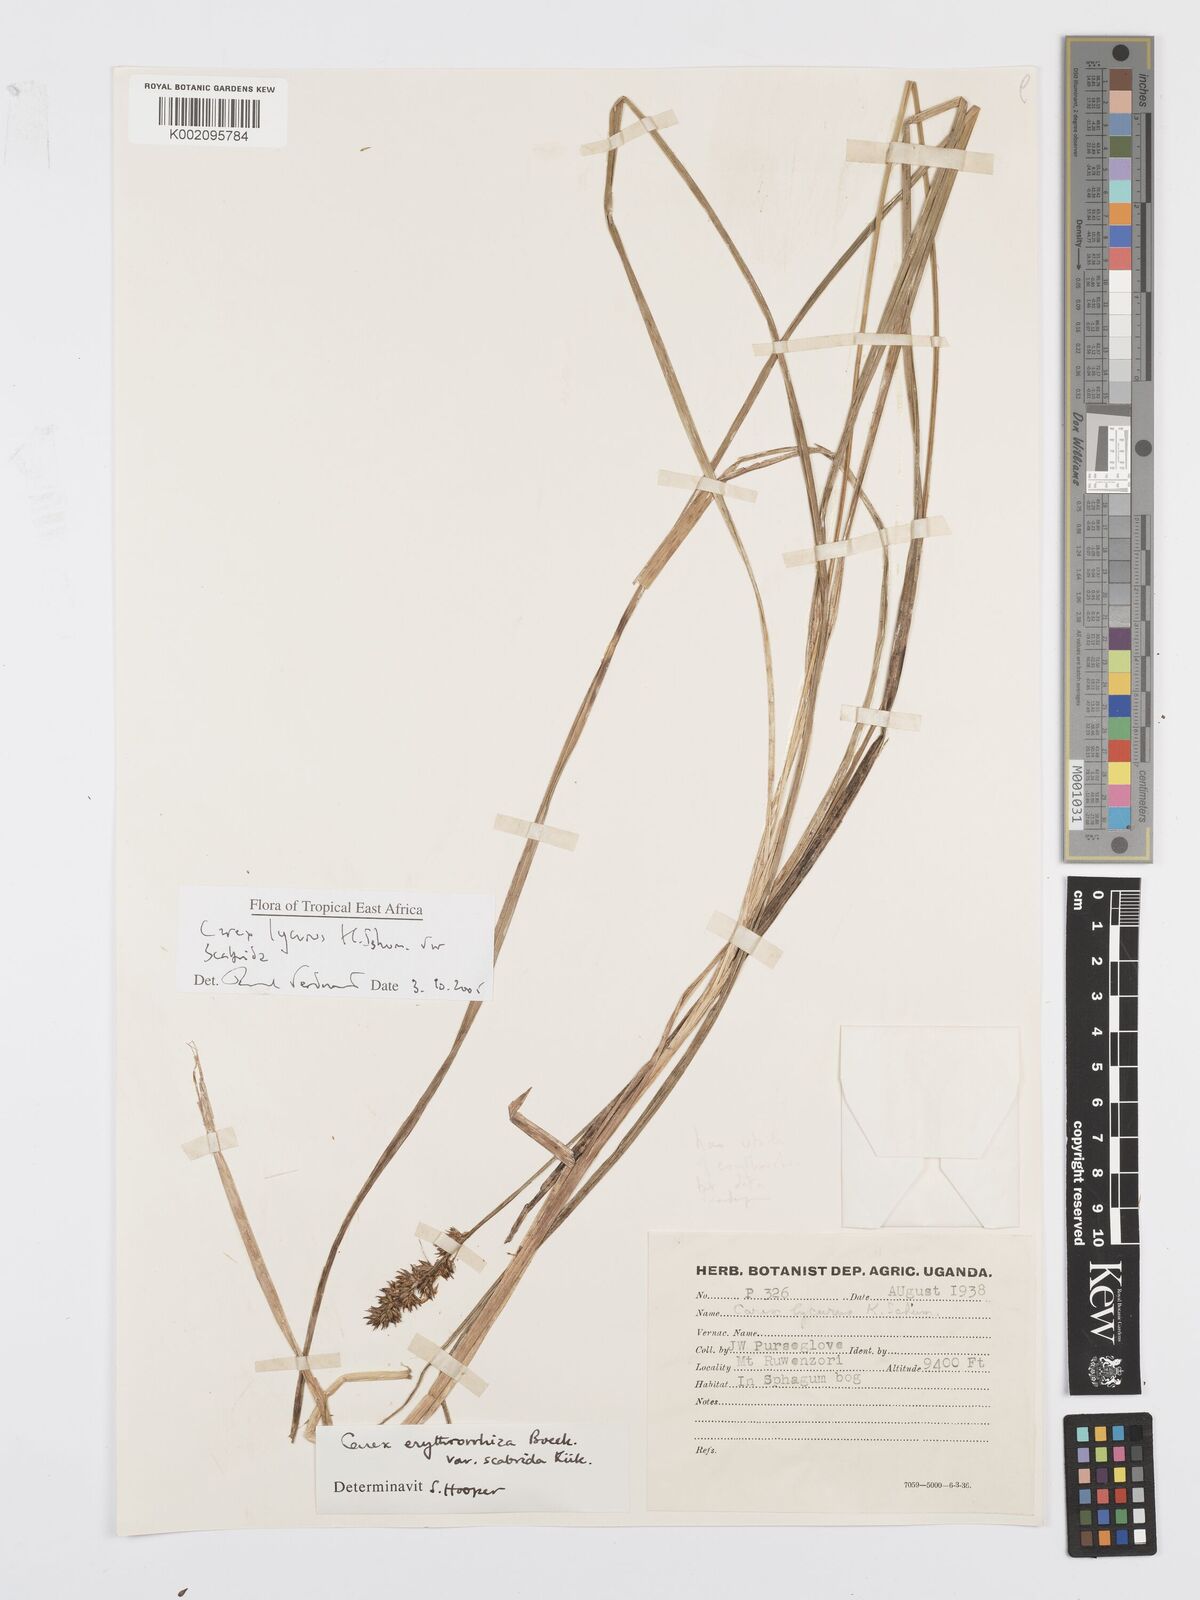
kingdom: Plantae
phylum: Tracheophyta
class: Liliopsida
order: Poales
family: Cyperaceae
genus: Carex
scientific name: Carex lycurus
